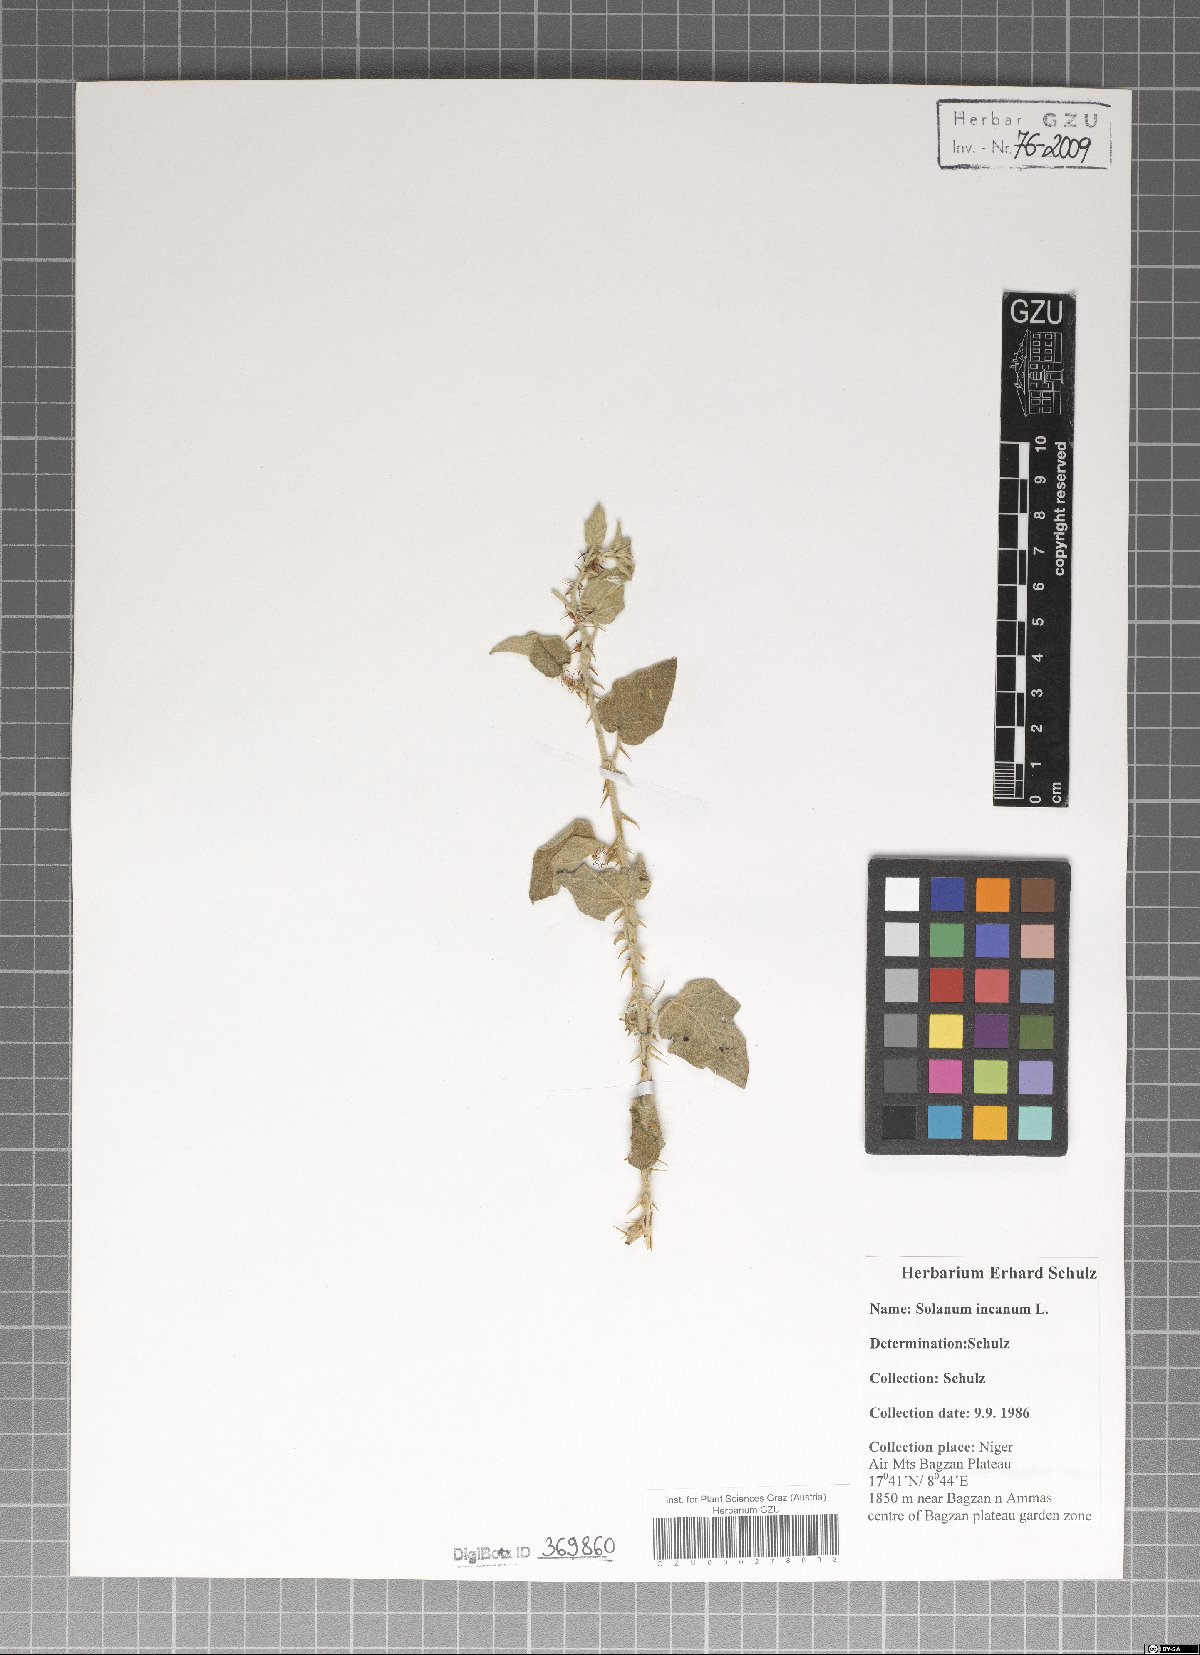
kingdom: Plantae
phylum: Tracheophyta
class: Magnoliopsida
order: Solanales
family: Solanaceae
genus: Solanum
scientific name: Solanum incanum
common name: Bitter apple
